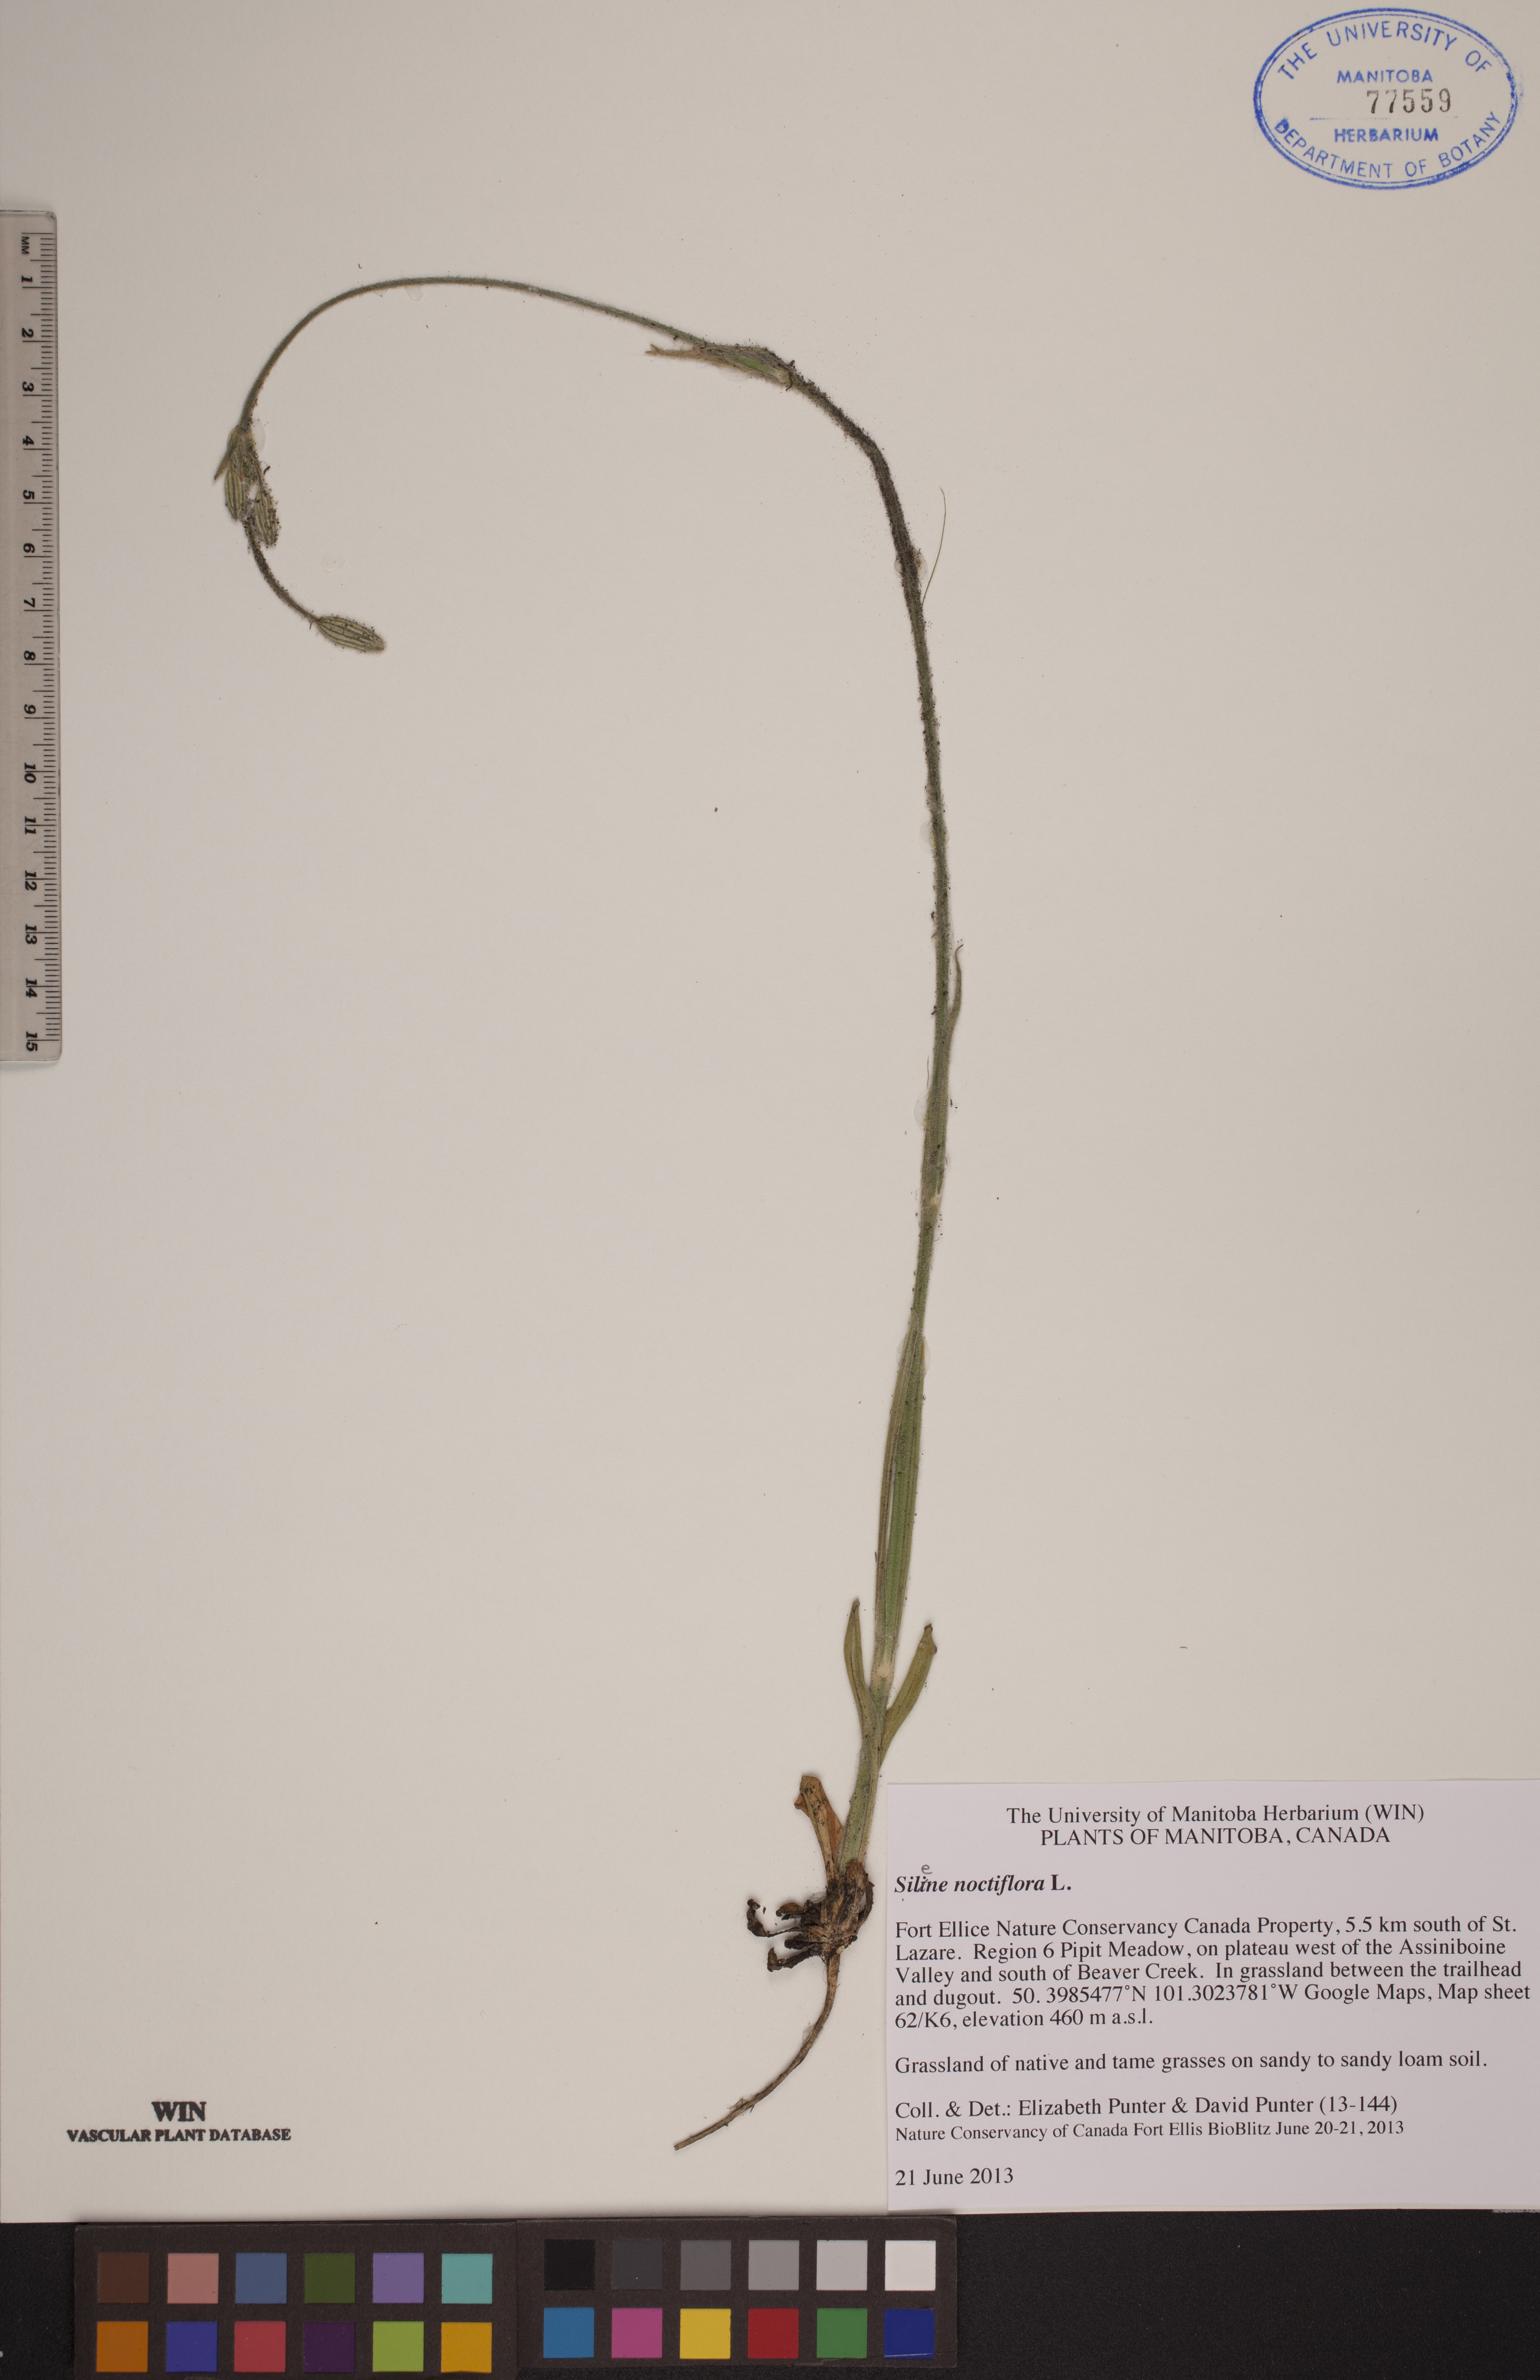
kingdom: Plantae
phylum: Tracheophyta
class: Magnoliopsida
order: Caryophyllales
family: Caryophyllaceae
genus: Silene
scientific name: Silene noctiflora
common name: Night-flowering catchfly
